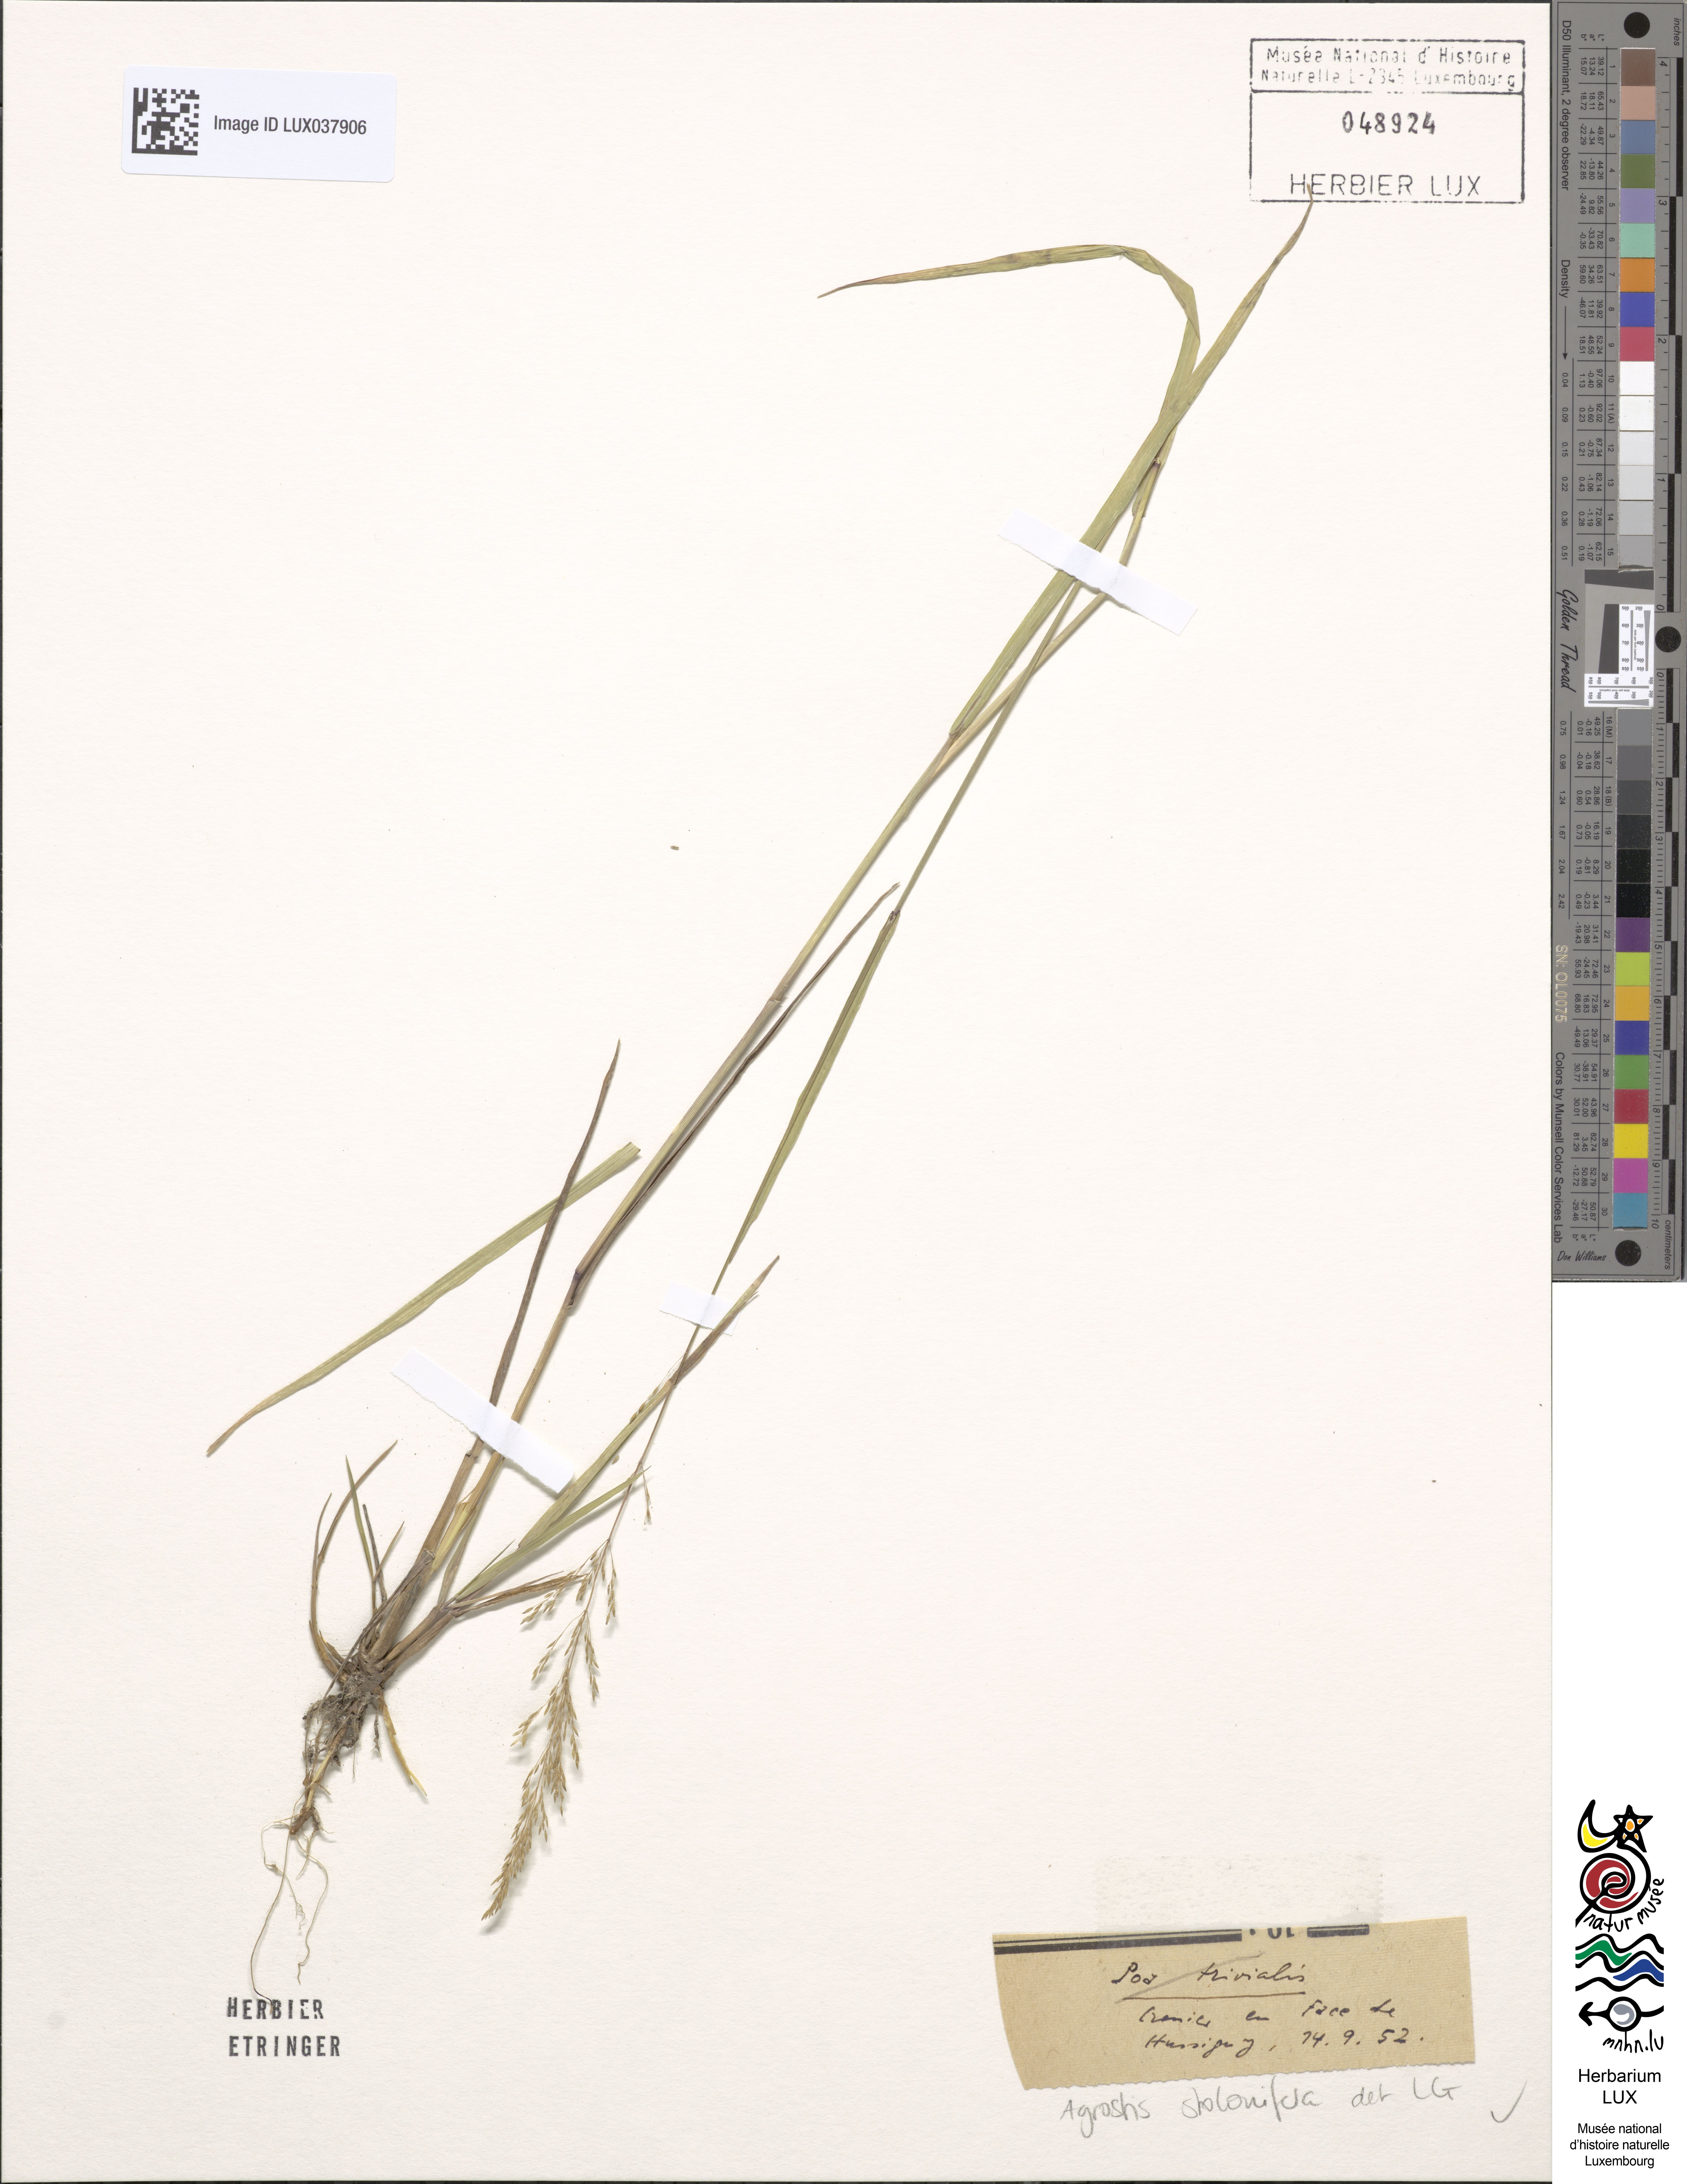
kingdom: Plantae
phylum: Tracheophyta
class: Liliopsida
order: Poales
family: Poaceae
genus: Agrostis
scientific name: Agrostis stolonifera
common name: Creeping bentgrass
